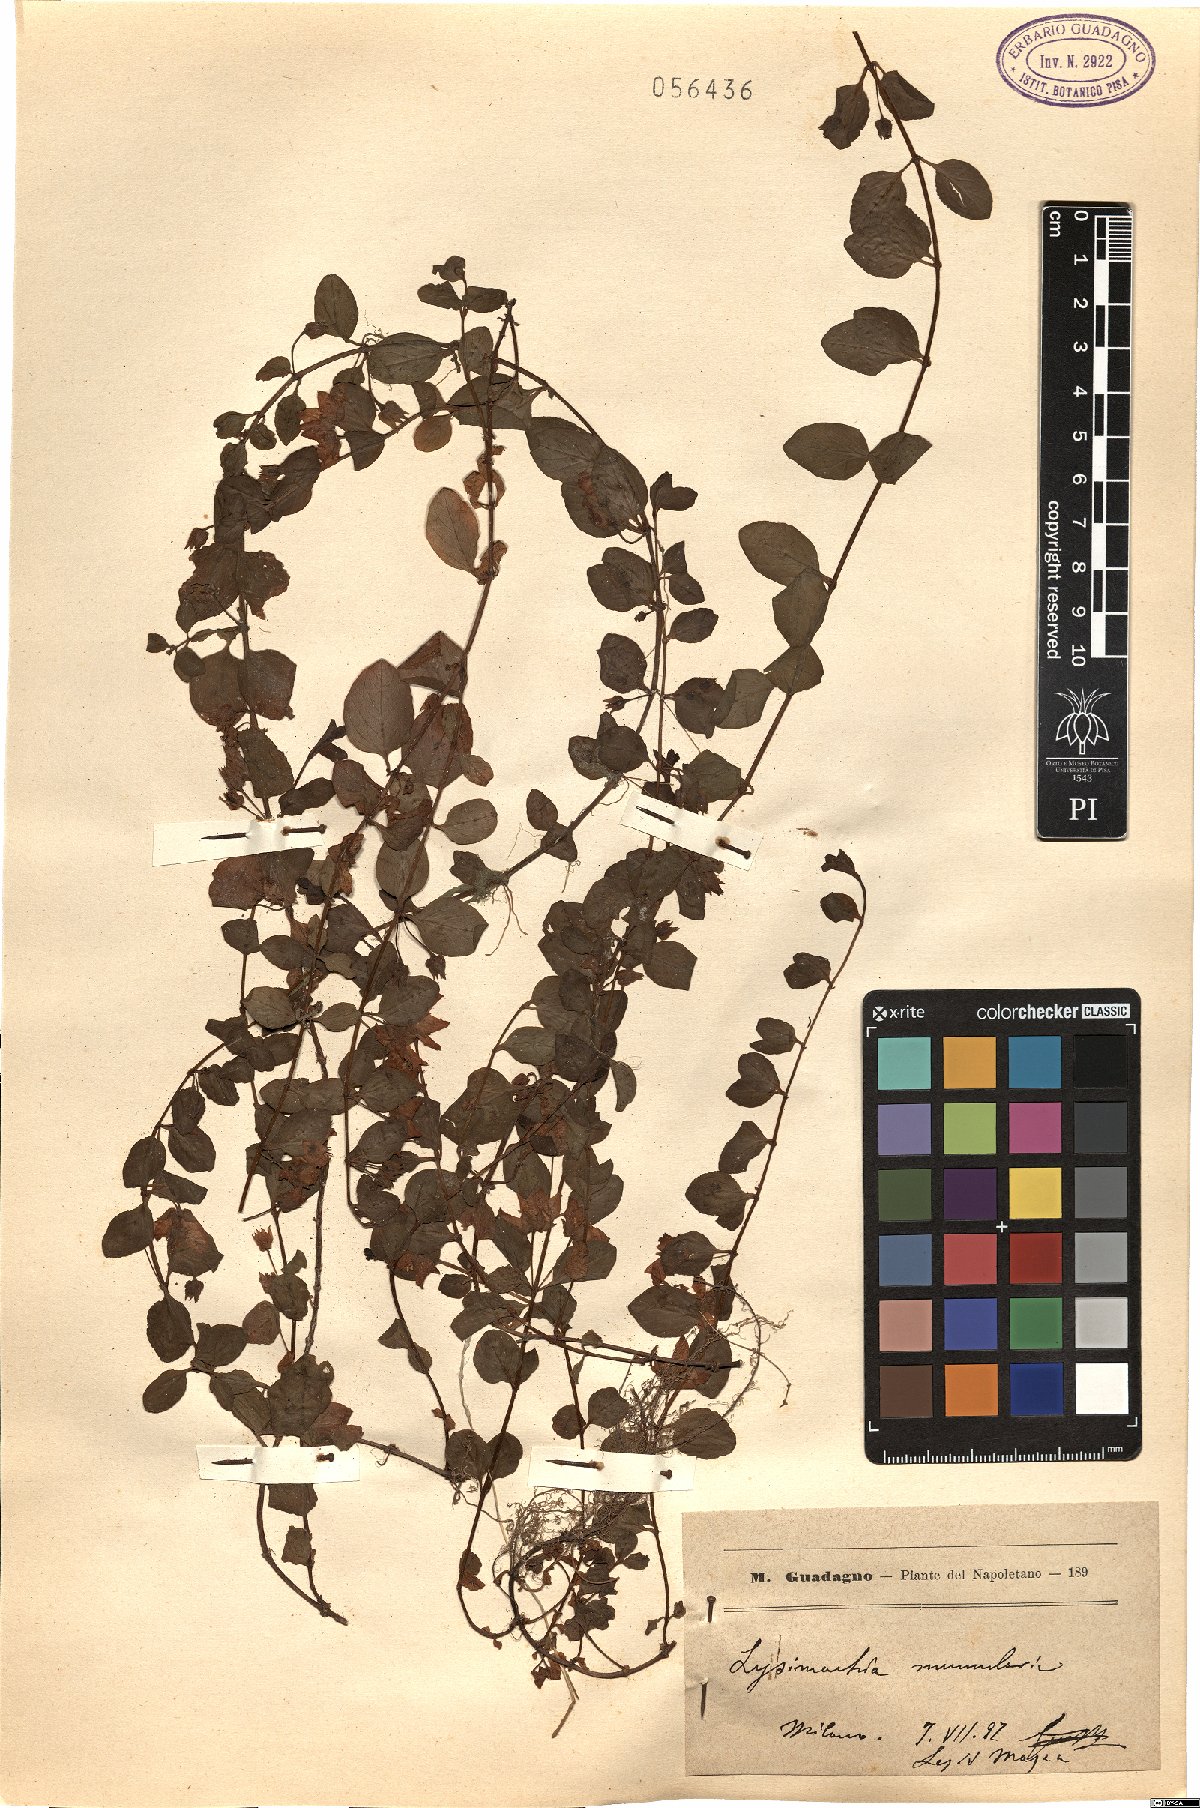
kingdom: Plantae
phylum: Tracheophyta
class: Magnoliopsida
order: Ericales
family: Primulaceae
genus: Lysimachia
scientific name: Lysimachia nummularia
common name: Moneywort
